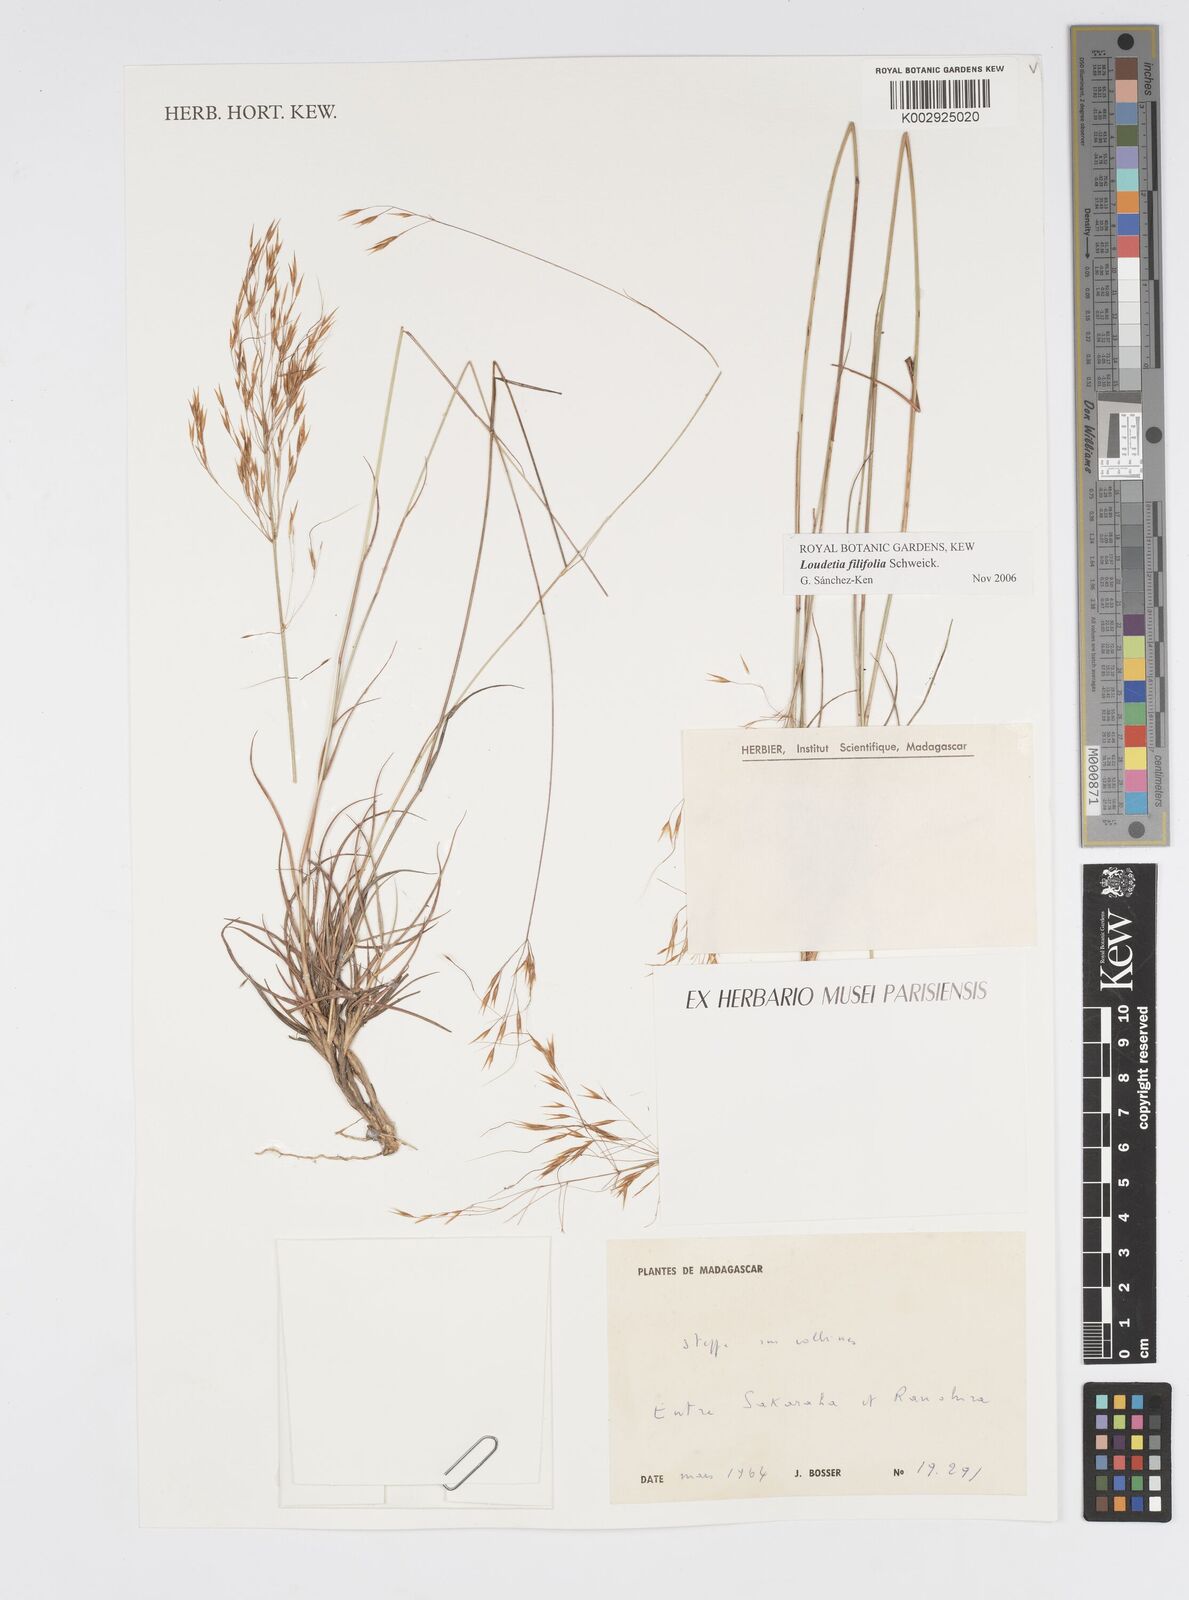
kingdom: Plantae
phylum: Tracheophyta
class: Liliopsida
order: Poales
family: Poaceae
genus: Loudetia
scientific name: Loudetia filifolia
